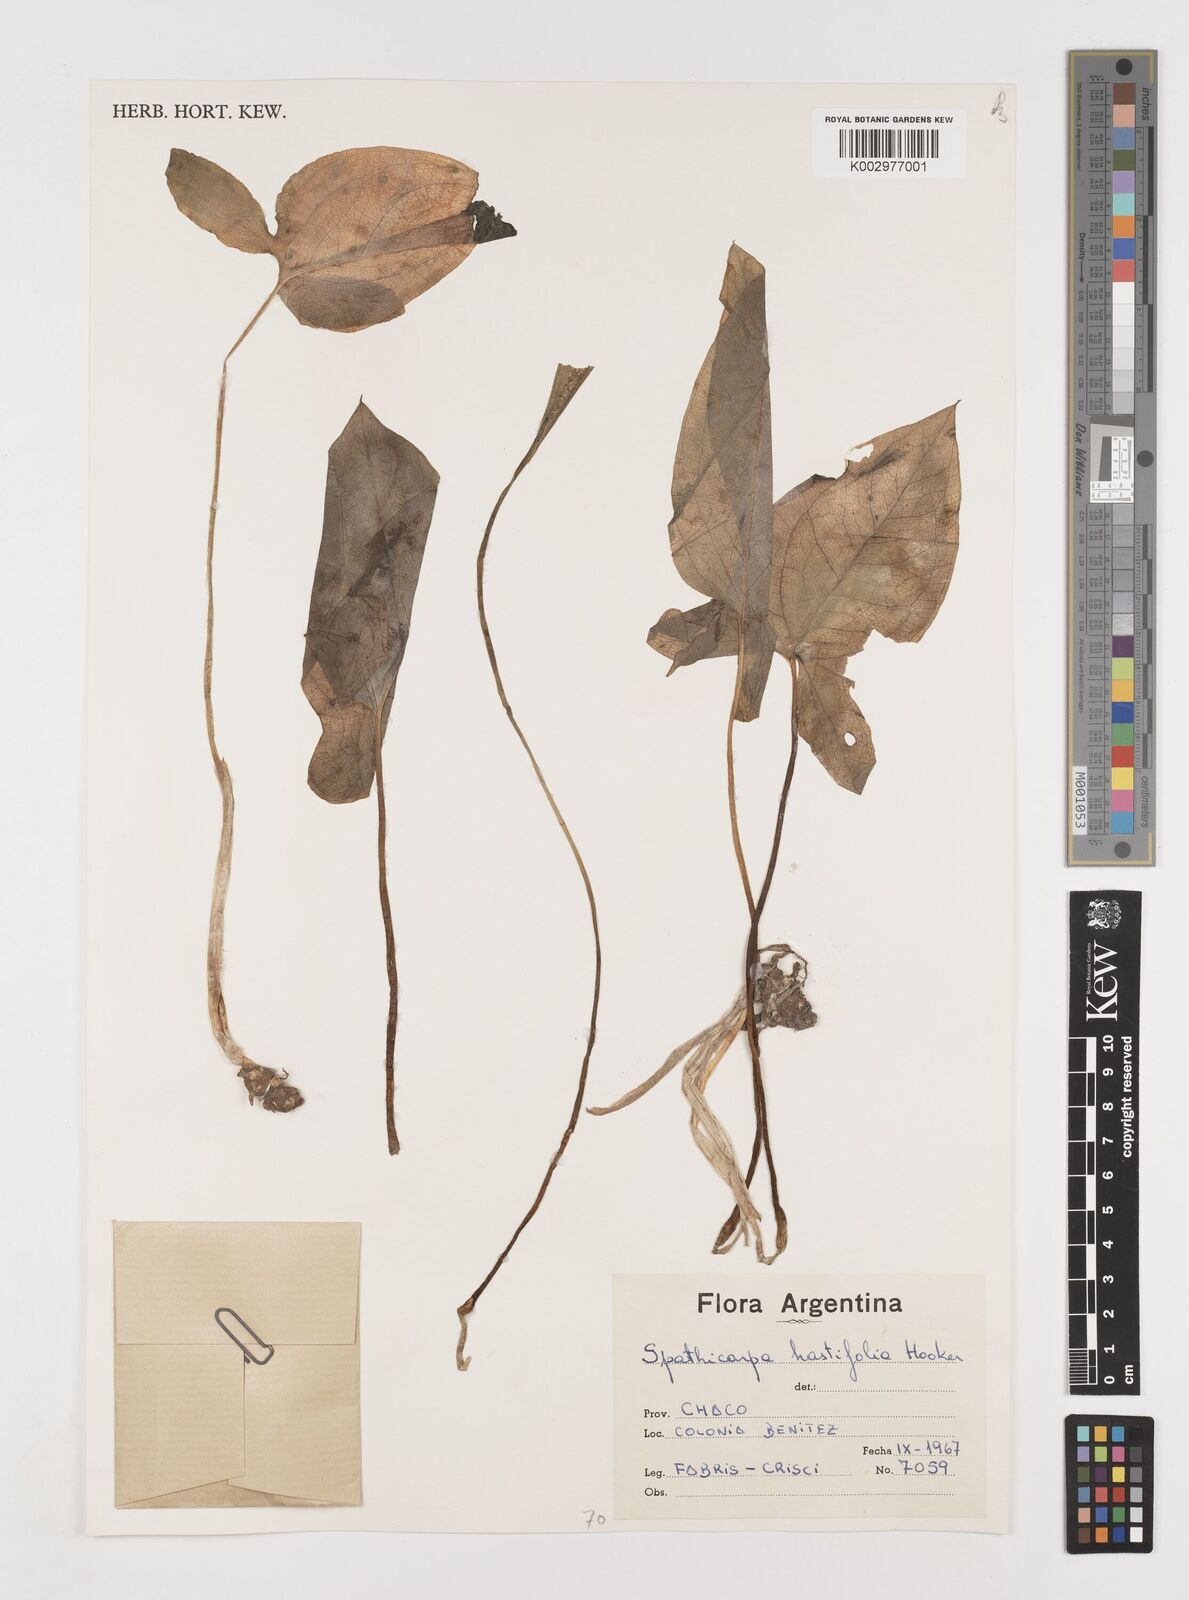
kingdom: Plantae
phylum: Tracheophyta
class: Liliopsida
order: Alismatales
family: Araceae
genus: Spathicarpa
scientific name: Spathicarpa hastifolia
